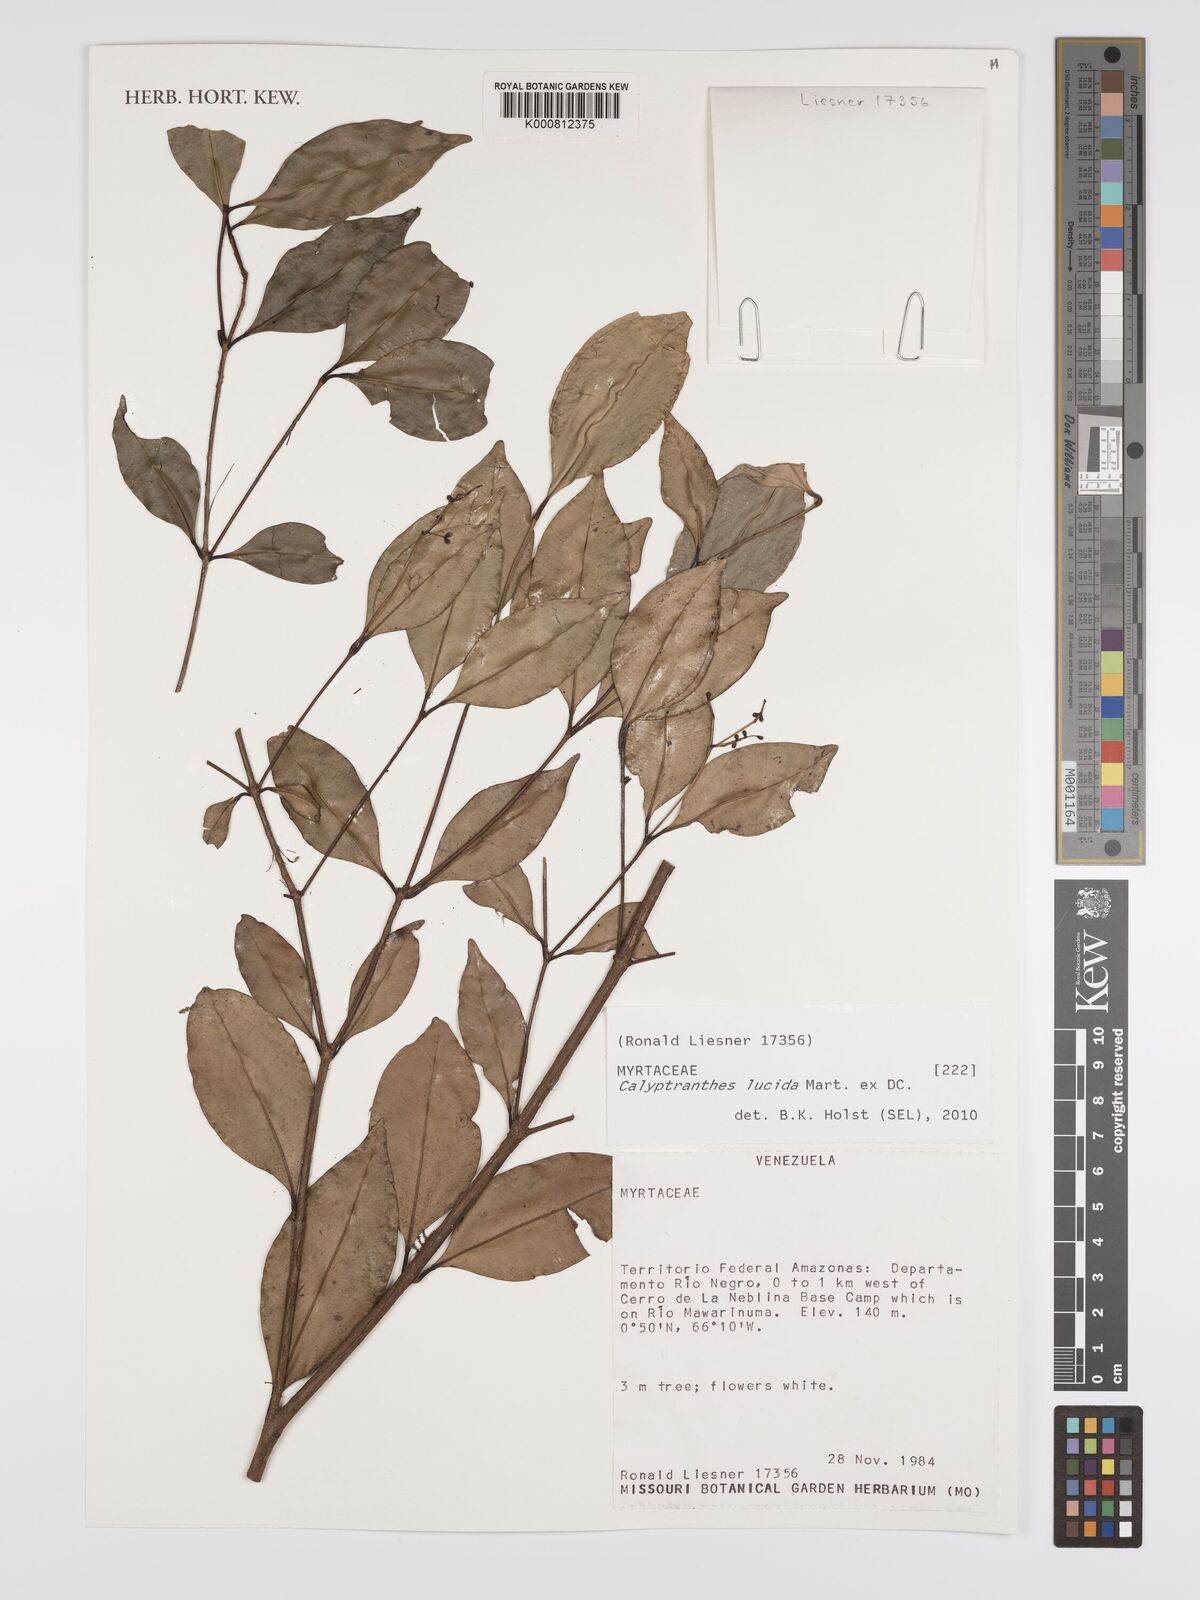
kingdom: Plantae
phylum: Tracheophyta
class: Magnoliopsida
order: Myrtales
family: Myrtaceae
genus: Myrcia
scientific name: Myrcia neolucida
